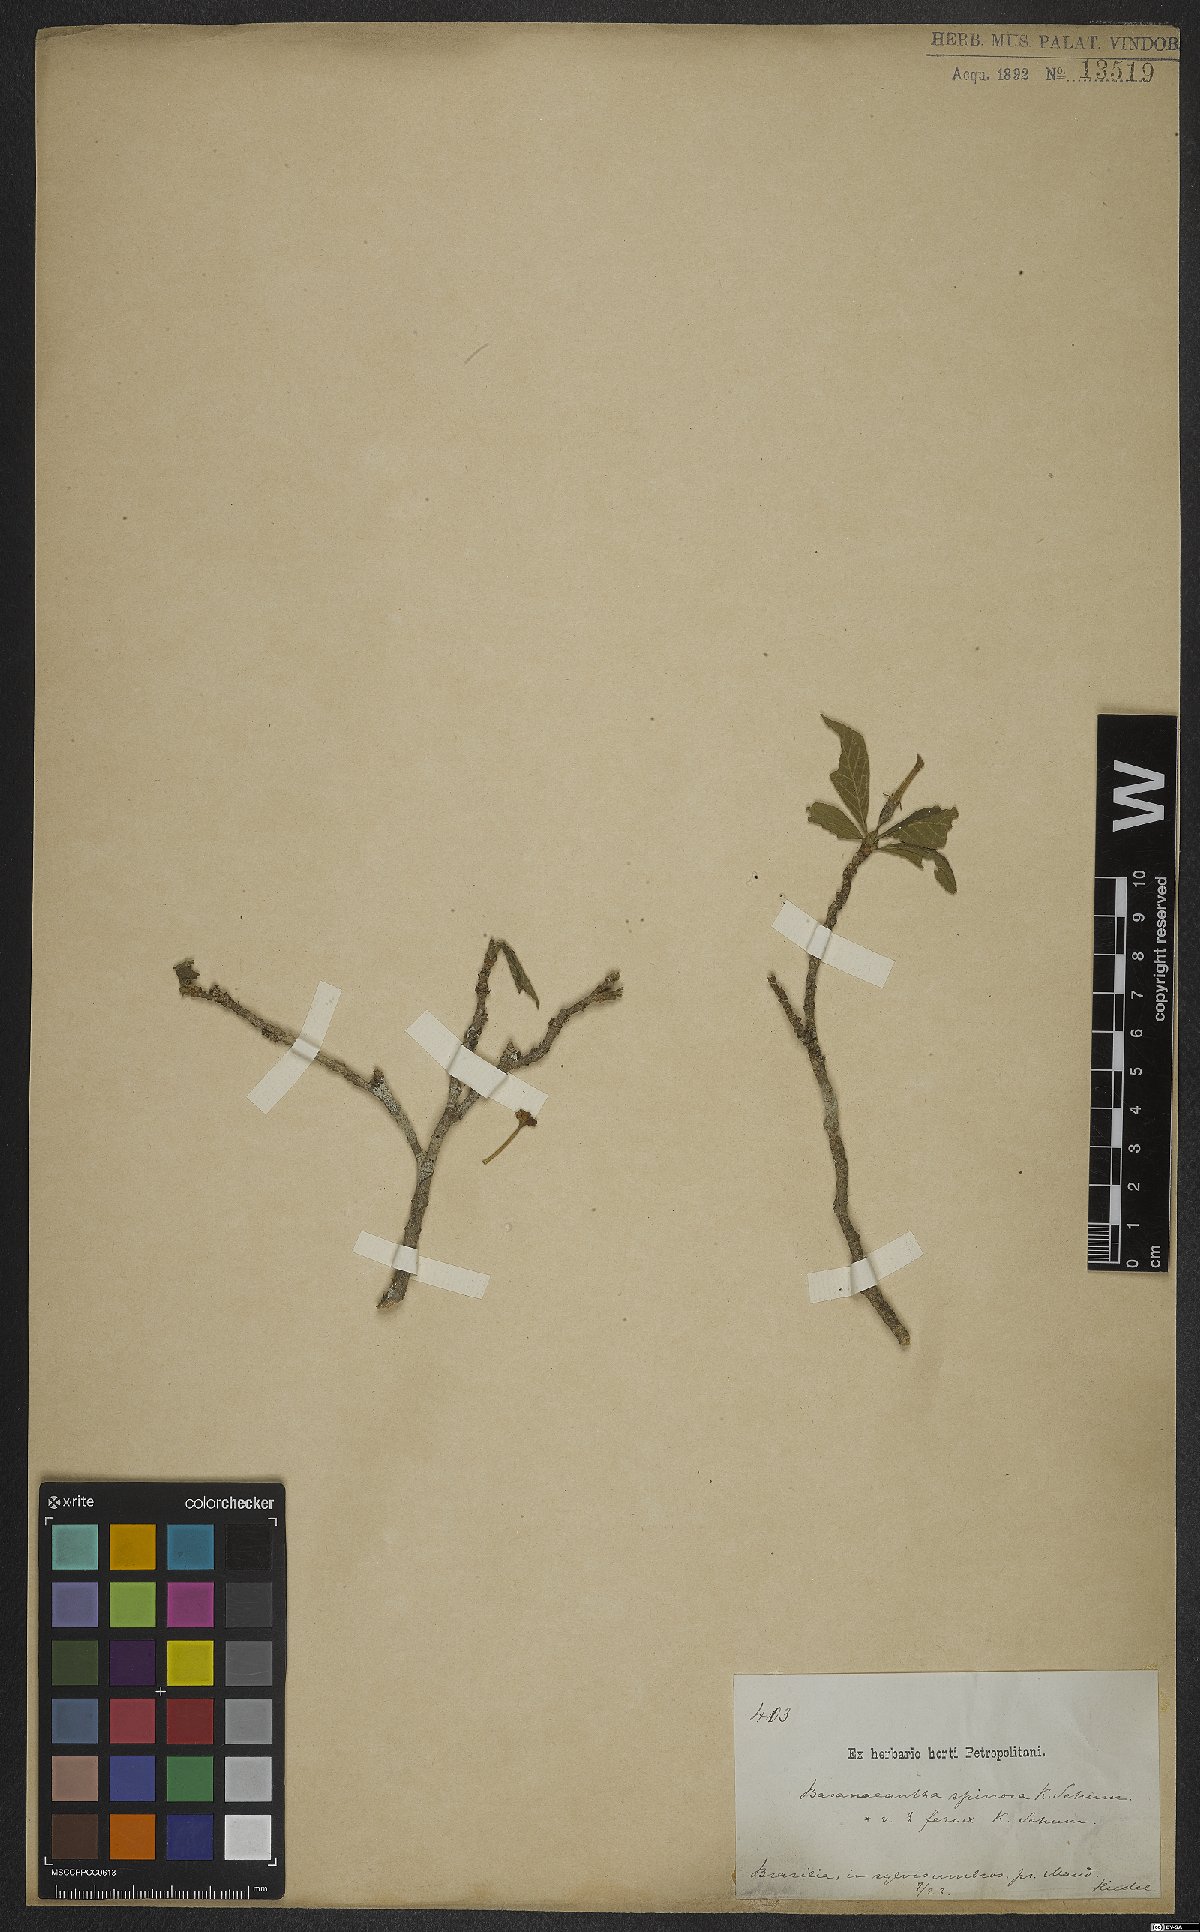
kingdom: Plantae
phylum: Tracheophyta
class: Magnoliopsida
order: Gentianales
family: Rubiaceae
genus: Randia
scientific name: Randia armata
